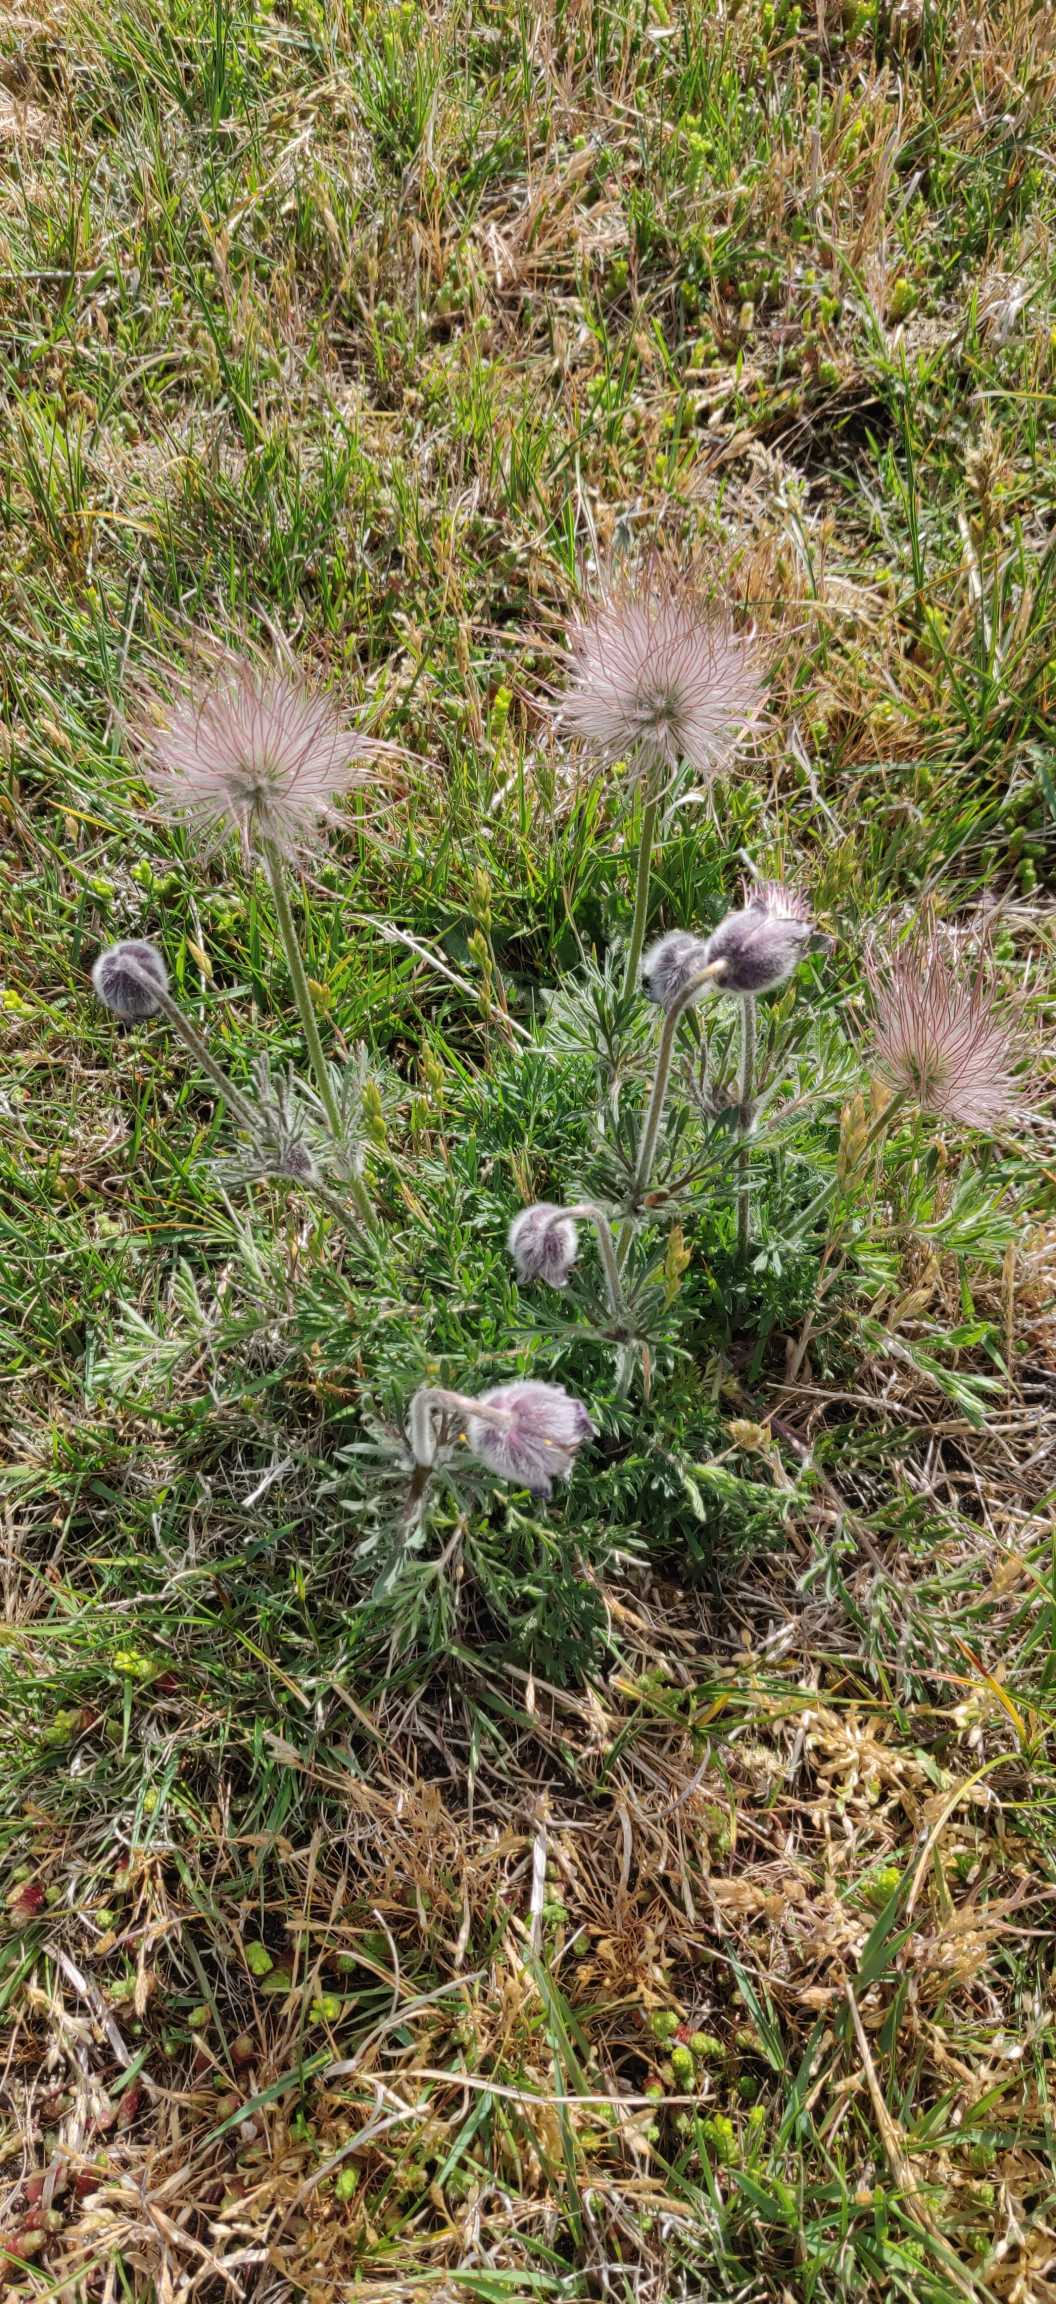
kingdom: Plantae
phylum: Tracheophyta
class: Magnoliopsida
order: Ranunculales
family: Ranunculaceae
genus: Pulsatilla
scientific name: Pulsatilla pratensis
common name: Nikkende kobjælde
